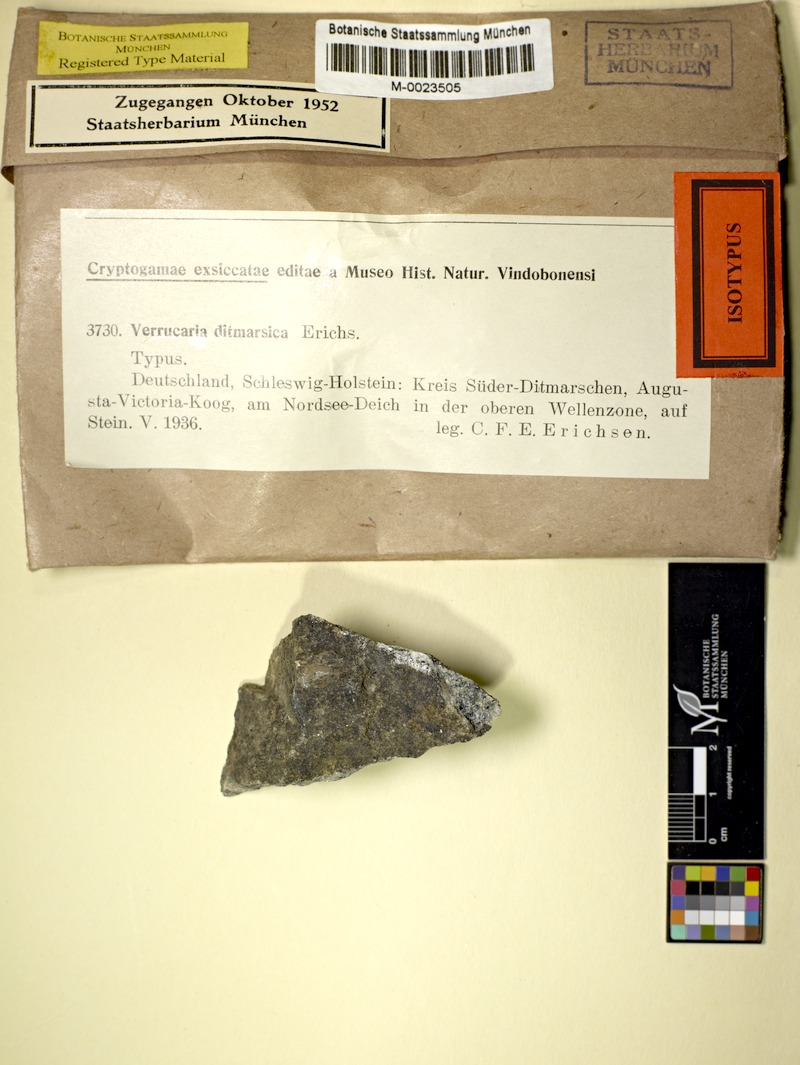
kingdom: Fungi
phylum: Ascomycota
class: Eurotiomycetes
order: Verrucariales
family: Verrucariaceae
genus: Verrucaria
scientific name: Verrucaria ditmarsica
